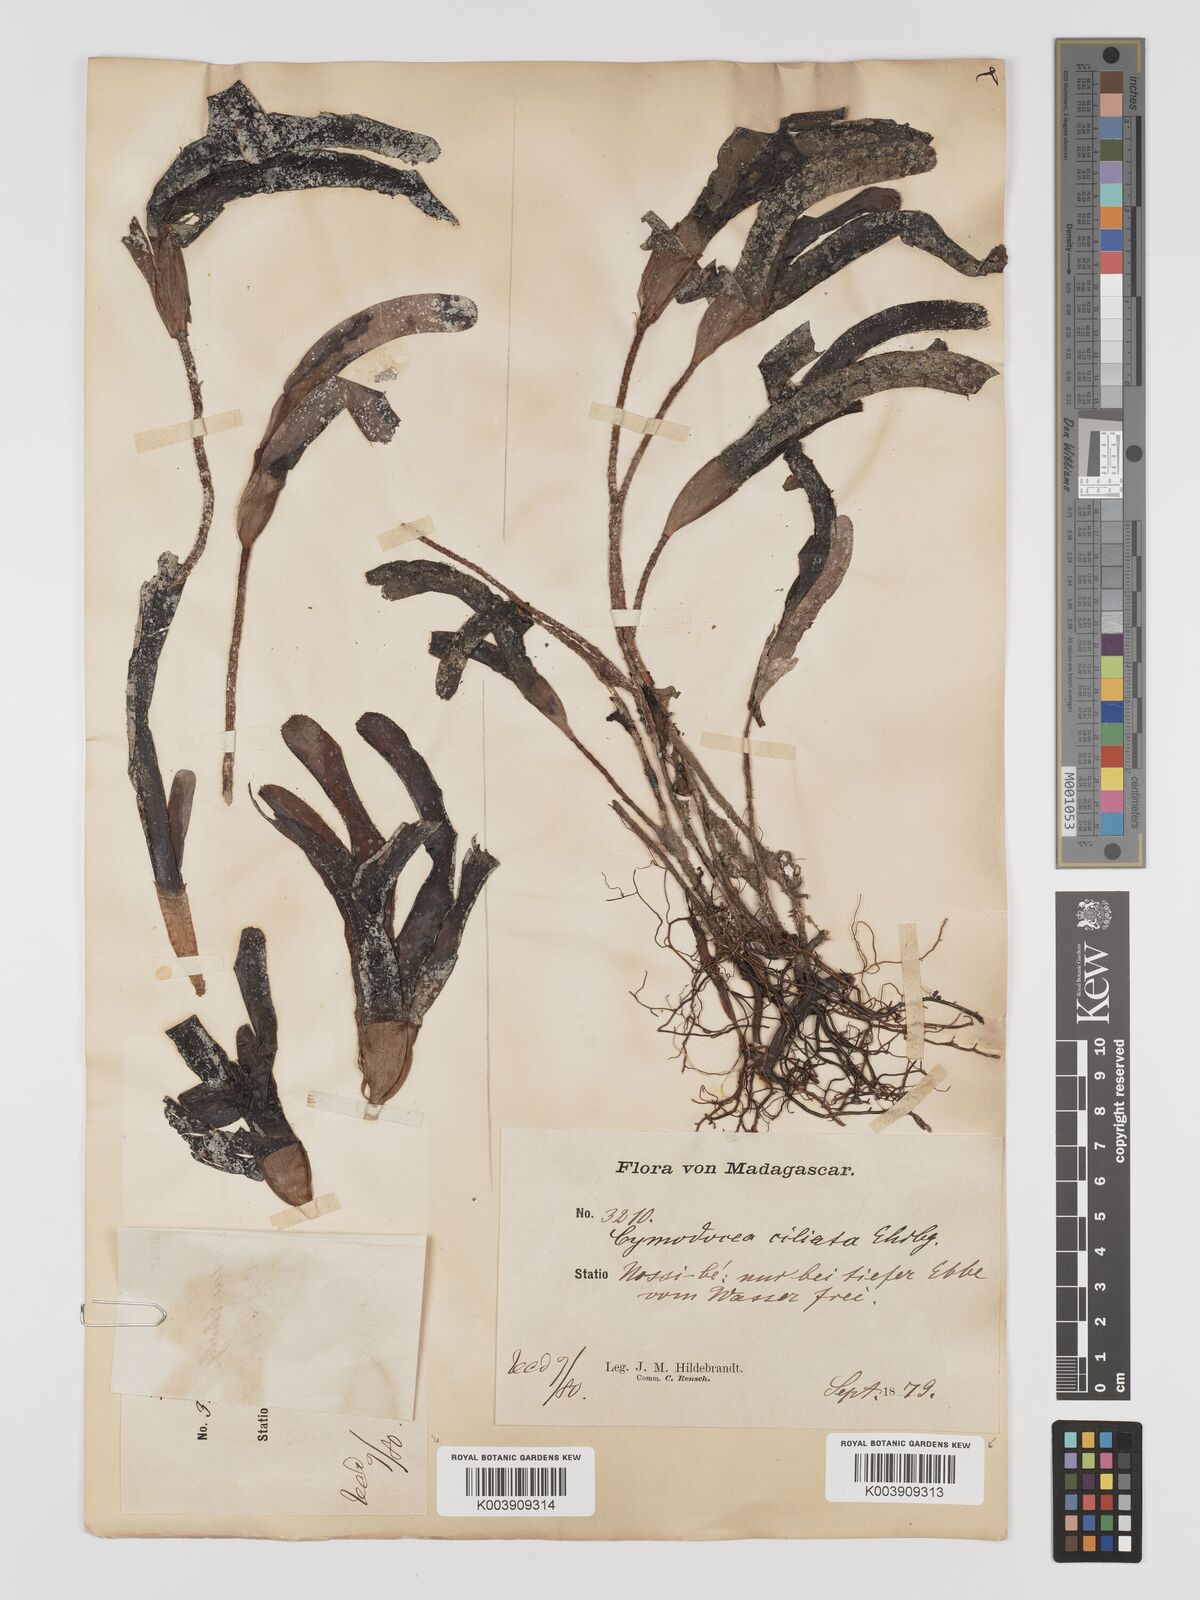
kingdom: Plantae
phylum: Tracheophyta
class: Liliopsida
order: Alismatales
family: Cymodoceaceae
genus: Thalassodendron
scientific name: Thalassodendron ciliatum
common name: Species code: tc
